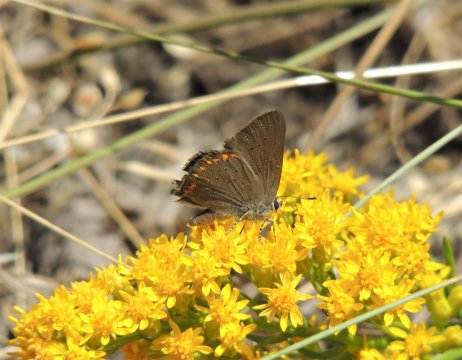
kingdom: Animalia
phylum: Arthropoda
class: Insecta
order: Lepidoptera
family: Lycaenidae
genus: Harkenclenus
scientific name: Harkenclenus titus
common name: Coral Hairstreak
